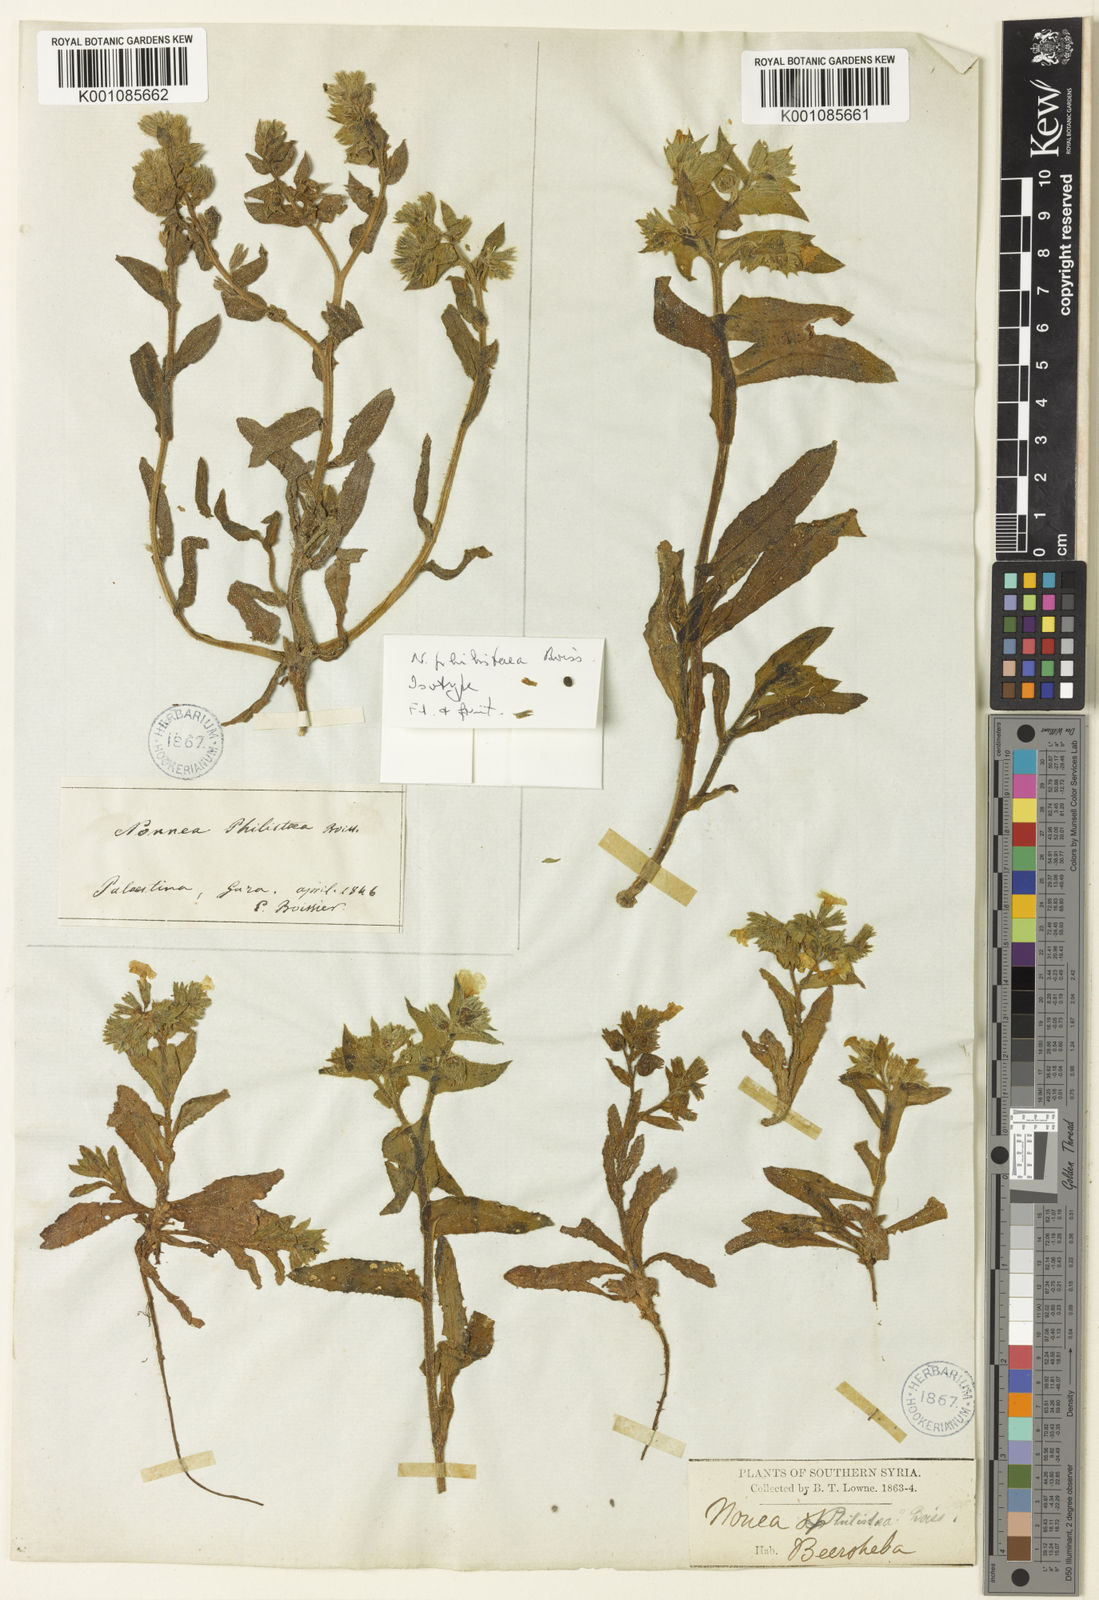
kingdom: Plantae
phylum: Tracheophyta
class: Magnoliopsida
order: Boraginales
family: Boraginaceae
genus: Nonea
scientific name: Nonea philistaea
